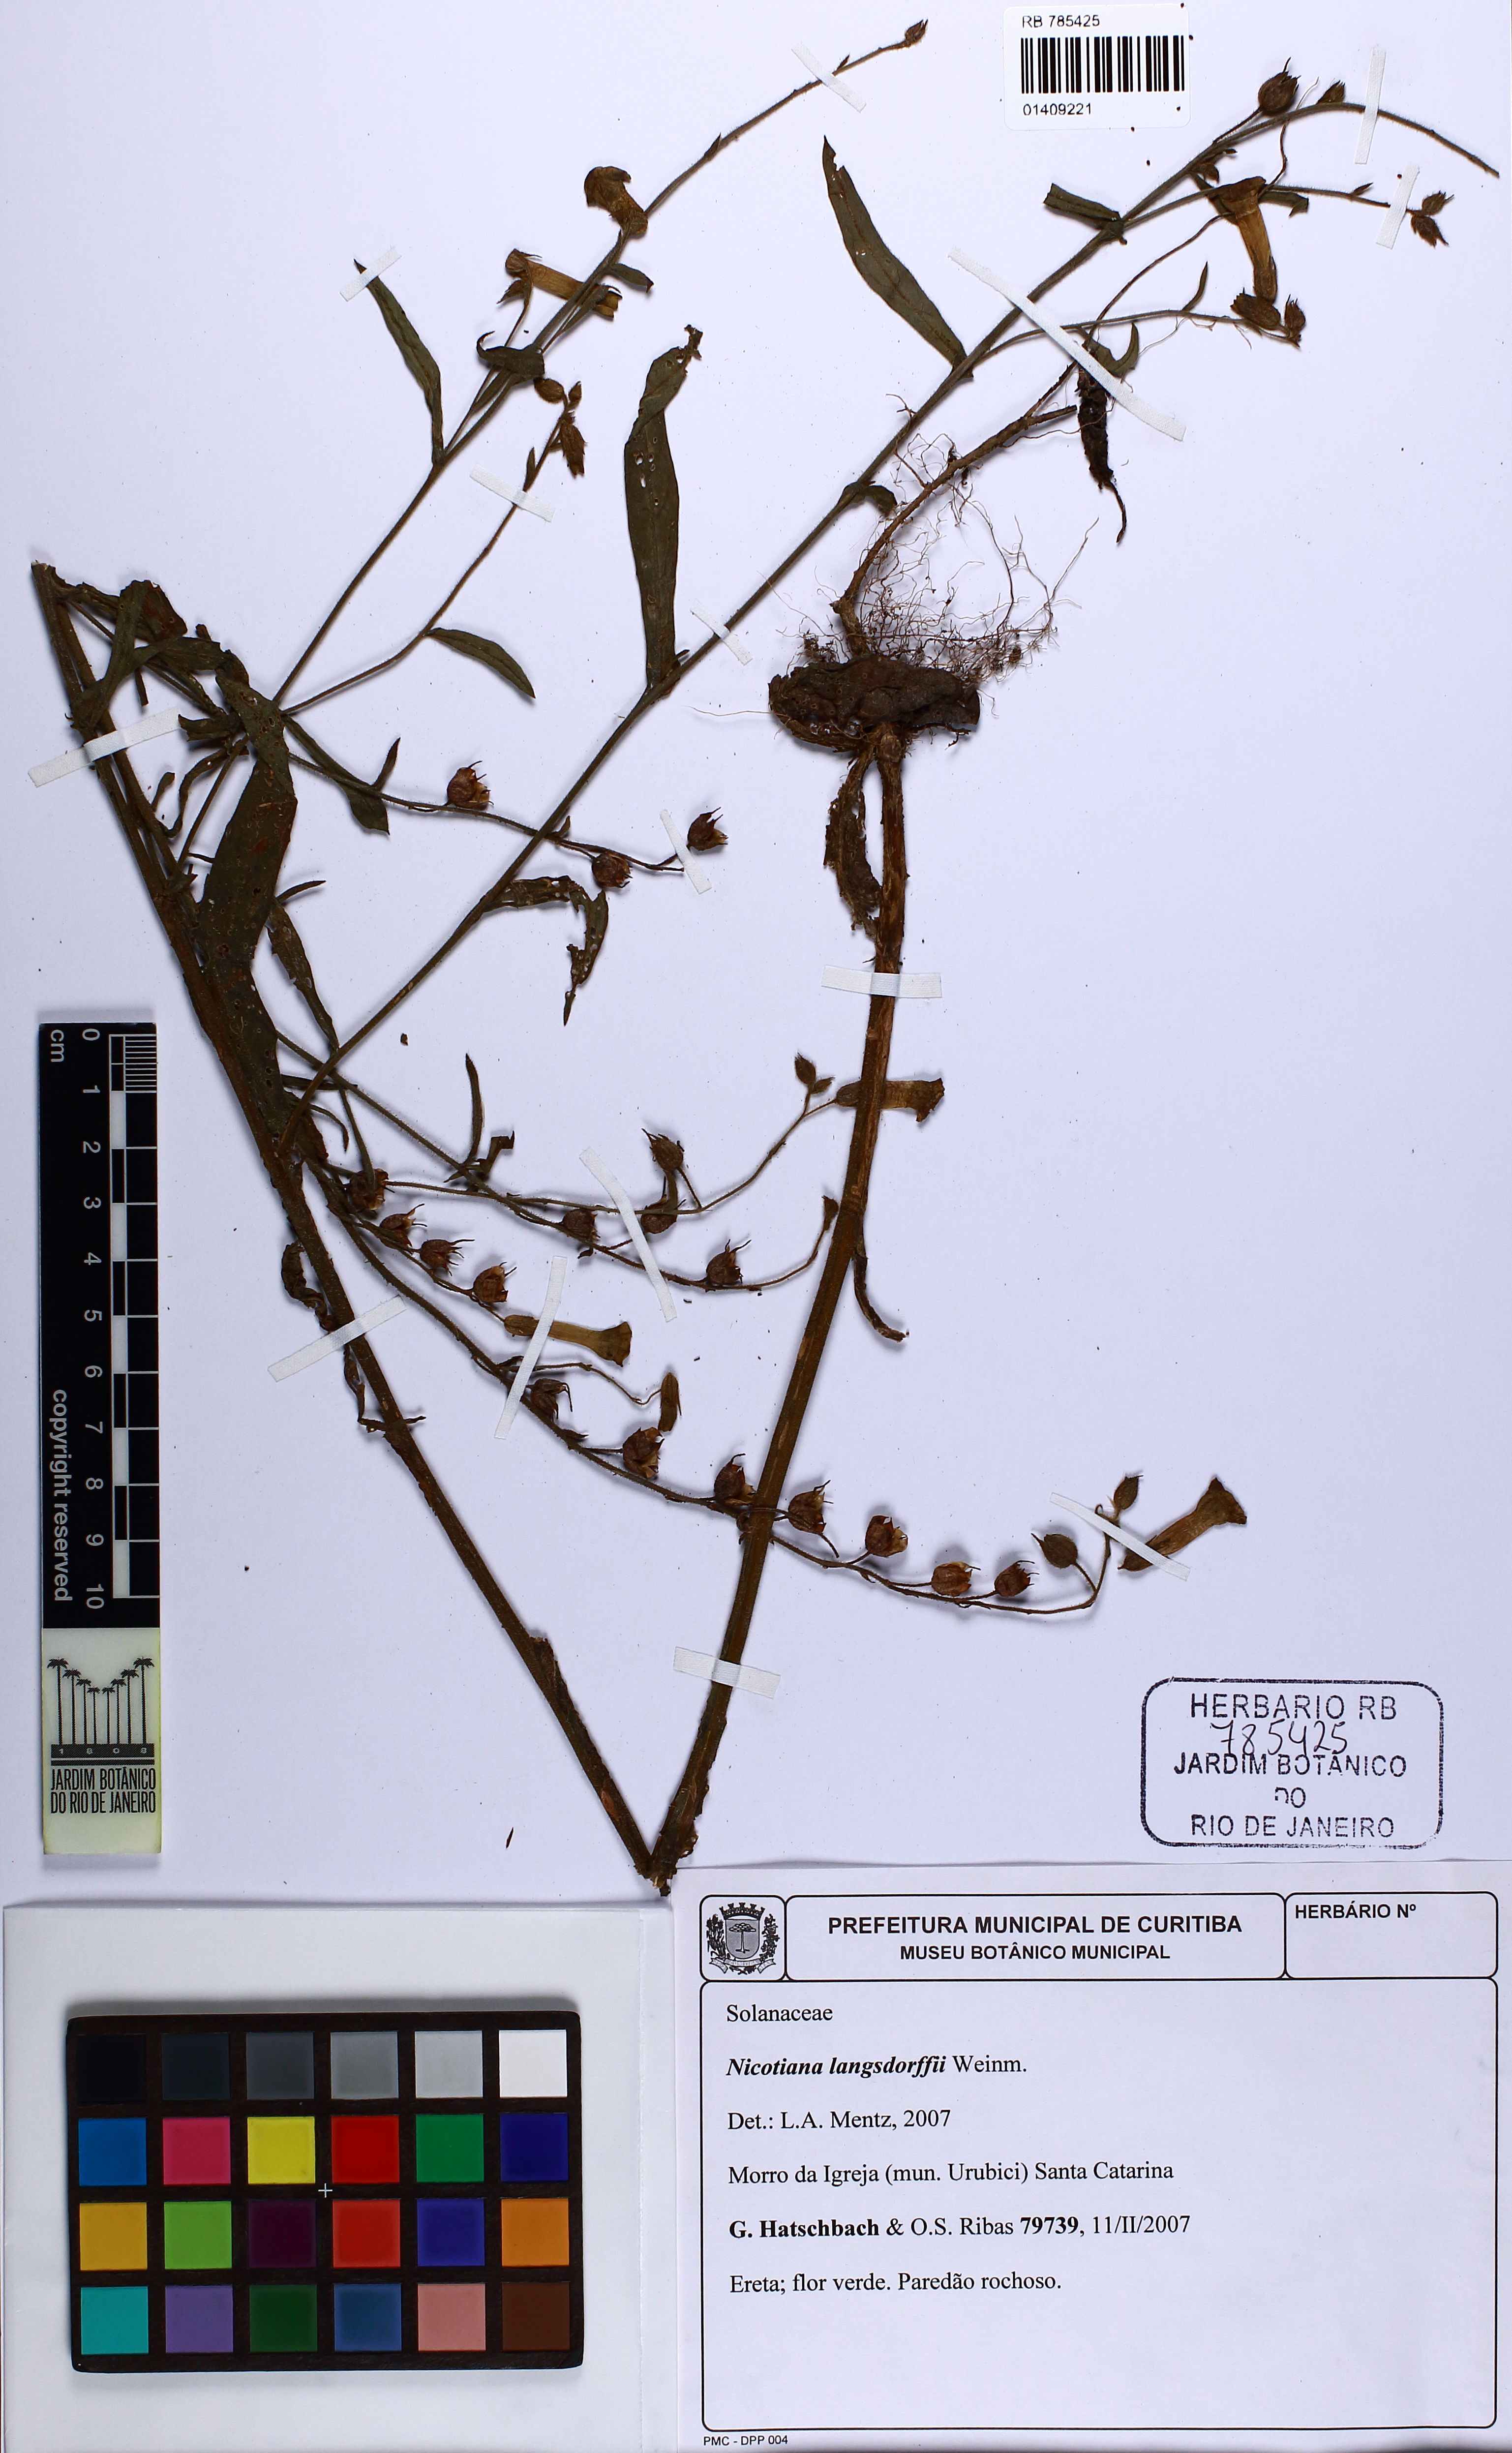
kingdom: Plantae
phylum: Tracheophyta
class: Magnoliopsida
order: Solanales
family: Solanaceae
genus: Nicotiana
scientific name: Nicotiana langsdorffii
